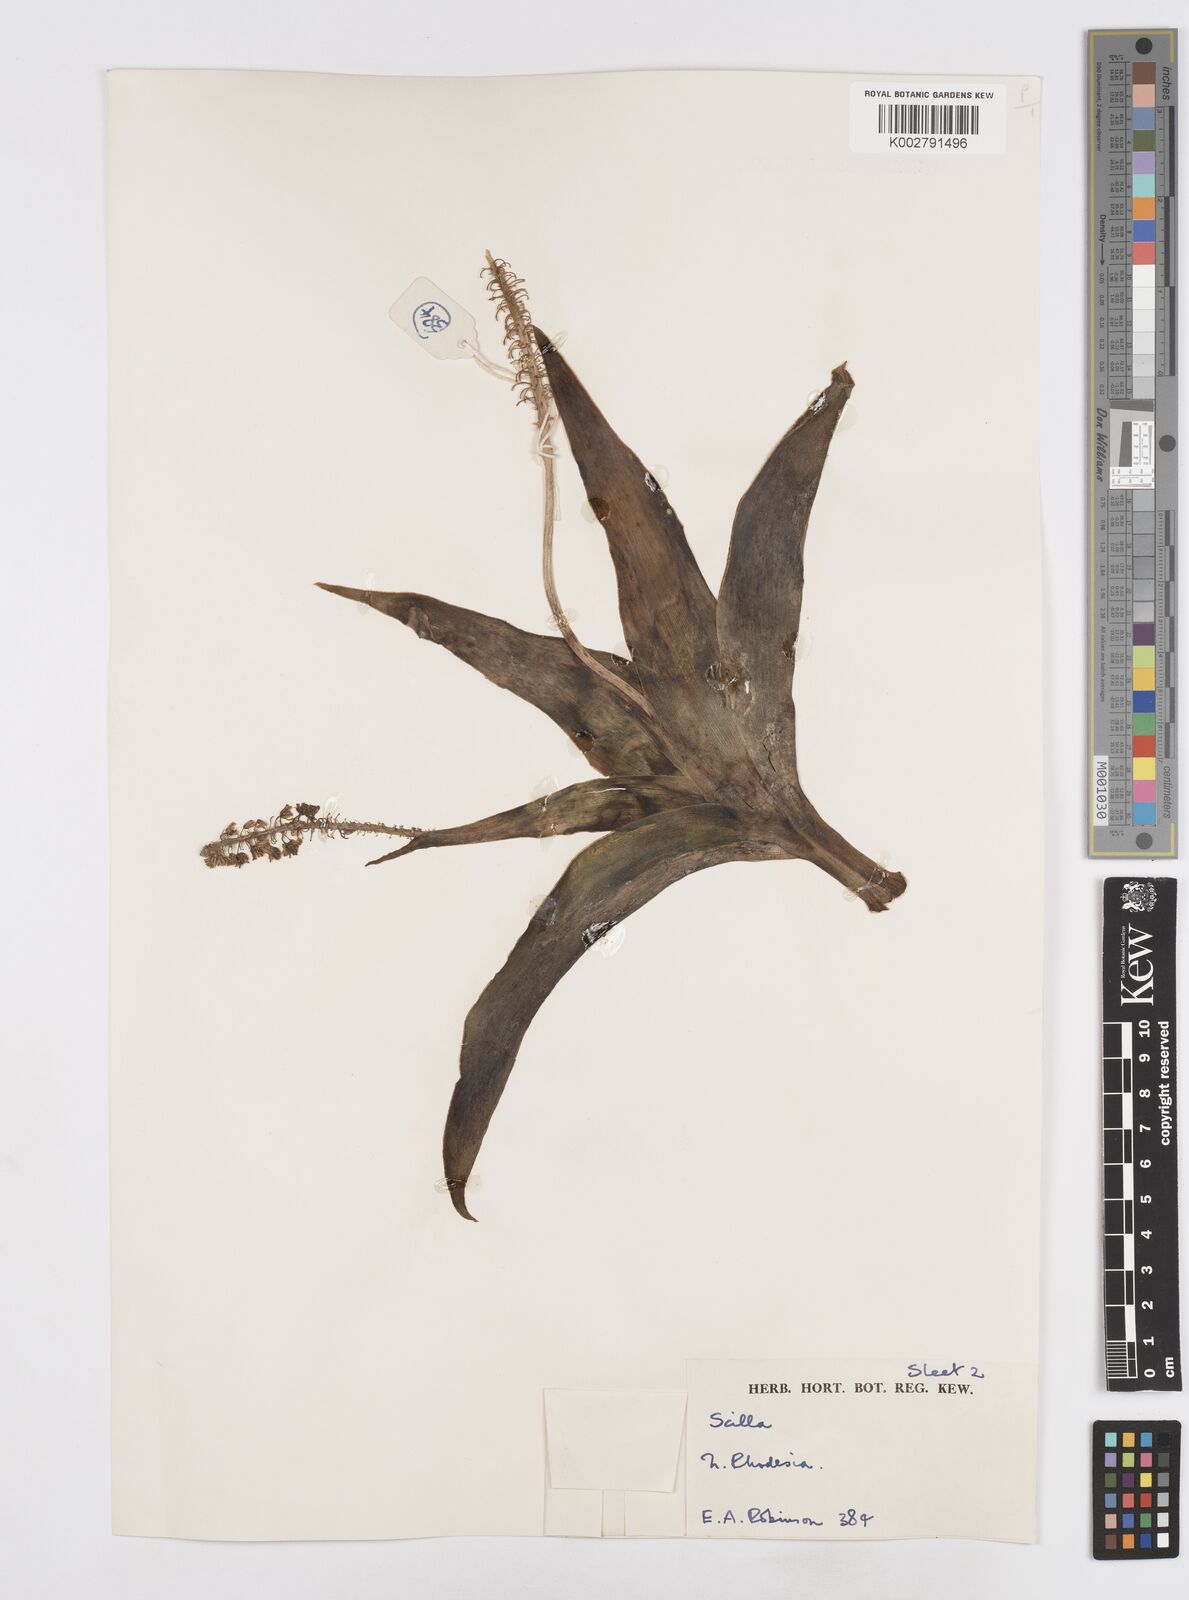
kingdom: Plantae
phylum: Tracheophyta
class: Liliopsida
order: Asparagales
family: Asparagaceae
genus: Scilla
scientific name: Scilla
